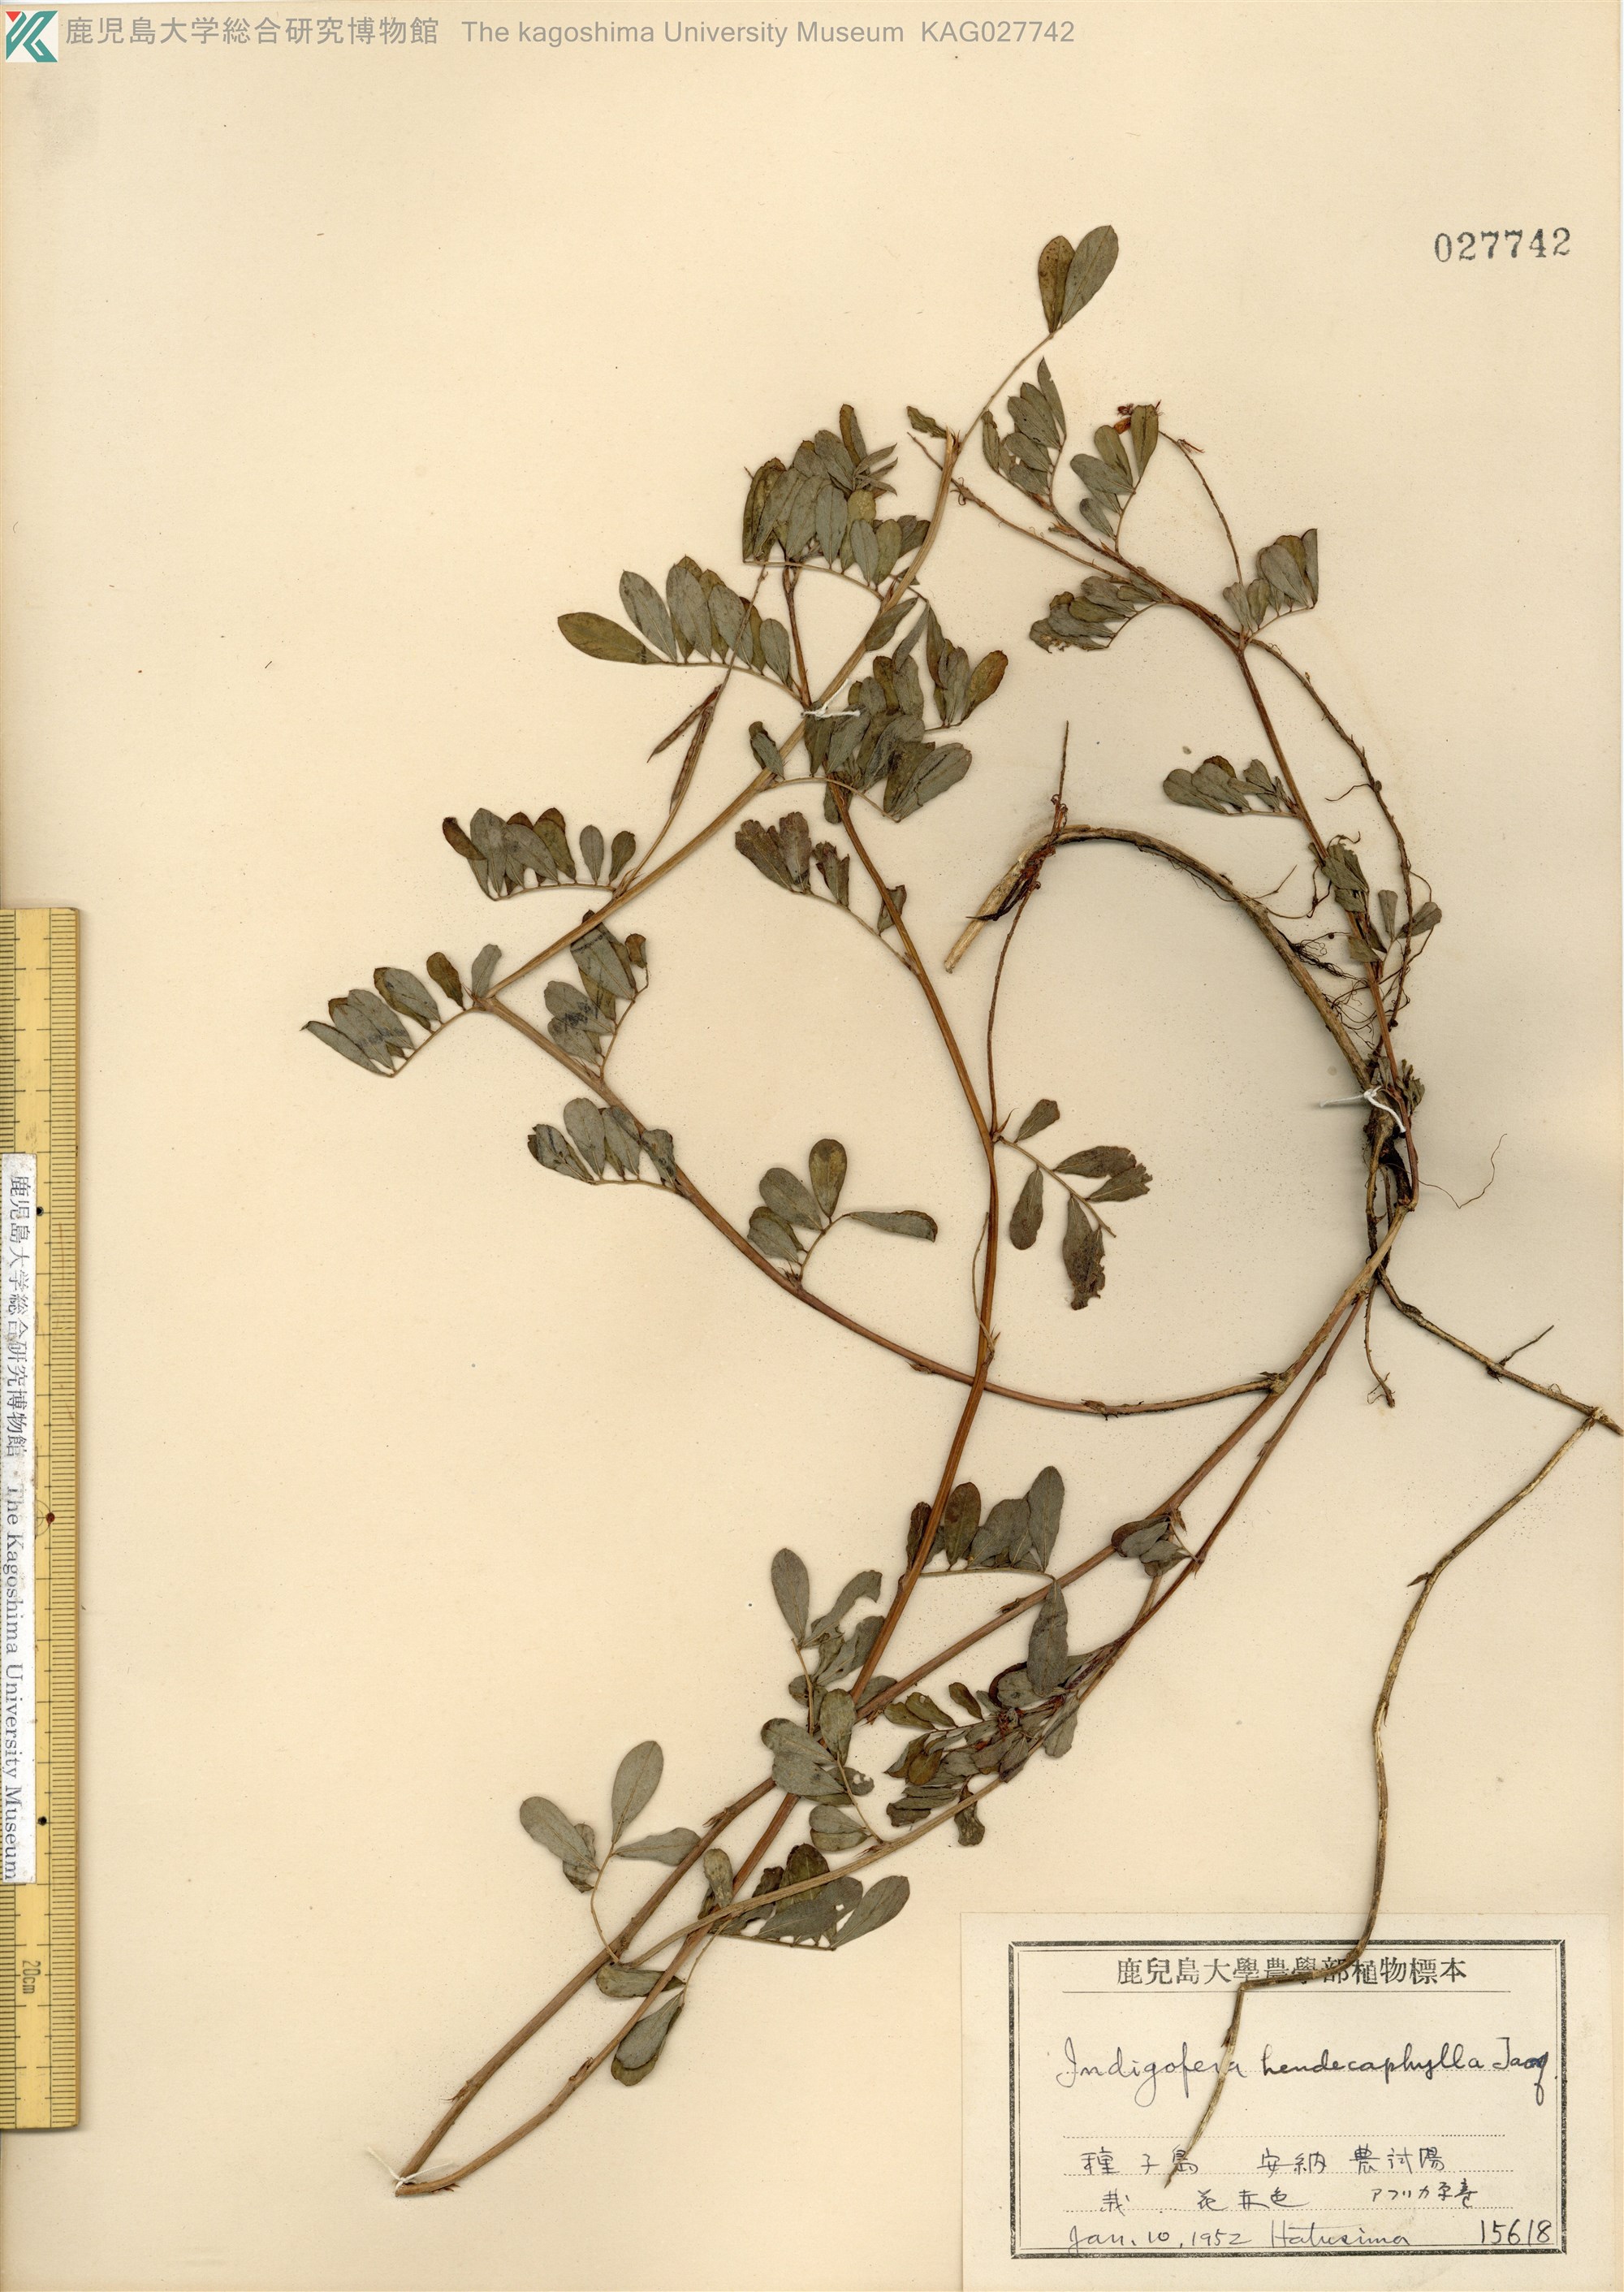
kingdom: Plantae
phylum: Tracheophyta
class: Magnoliopsida
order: Fabales
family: Fabaceae
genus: Indigofera
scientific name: Indigofera hendecaphylla
